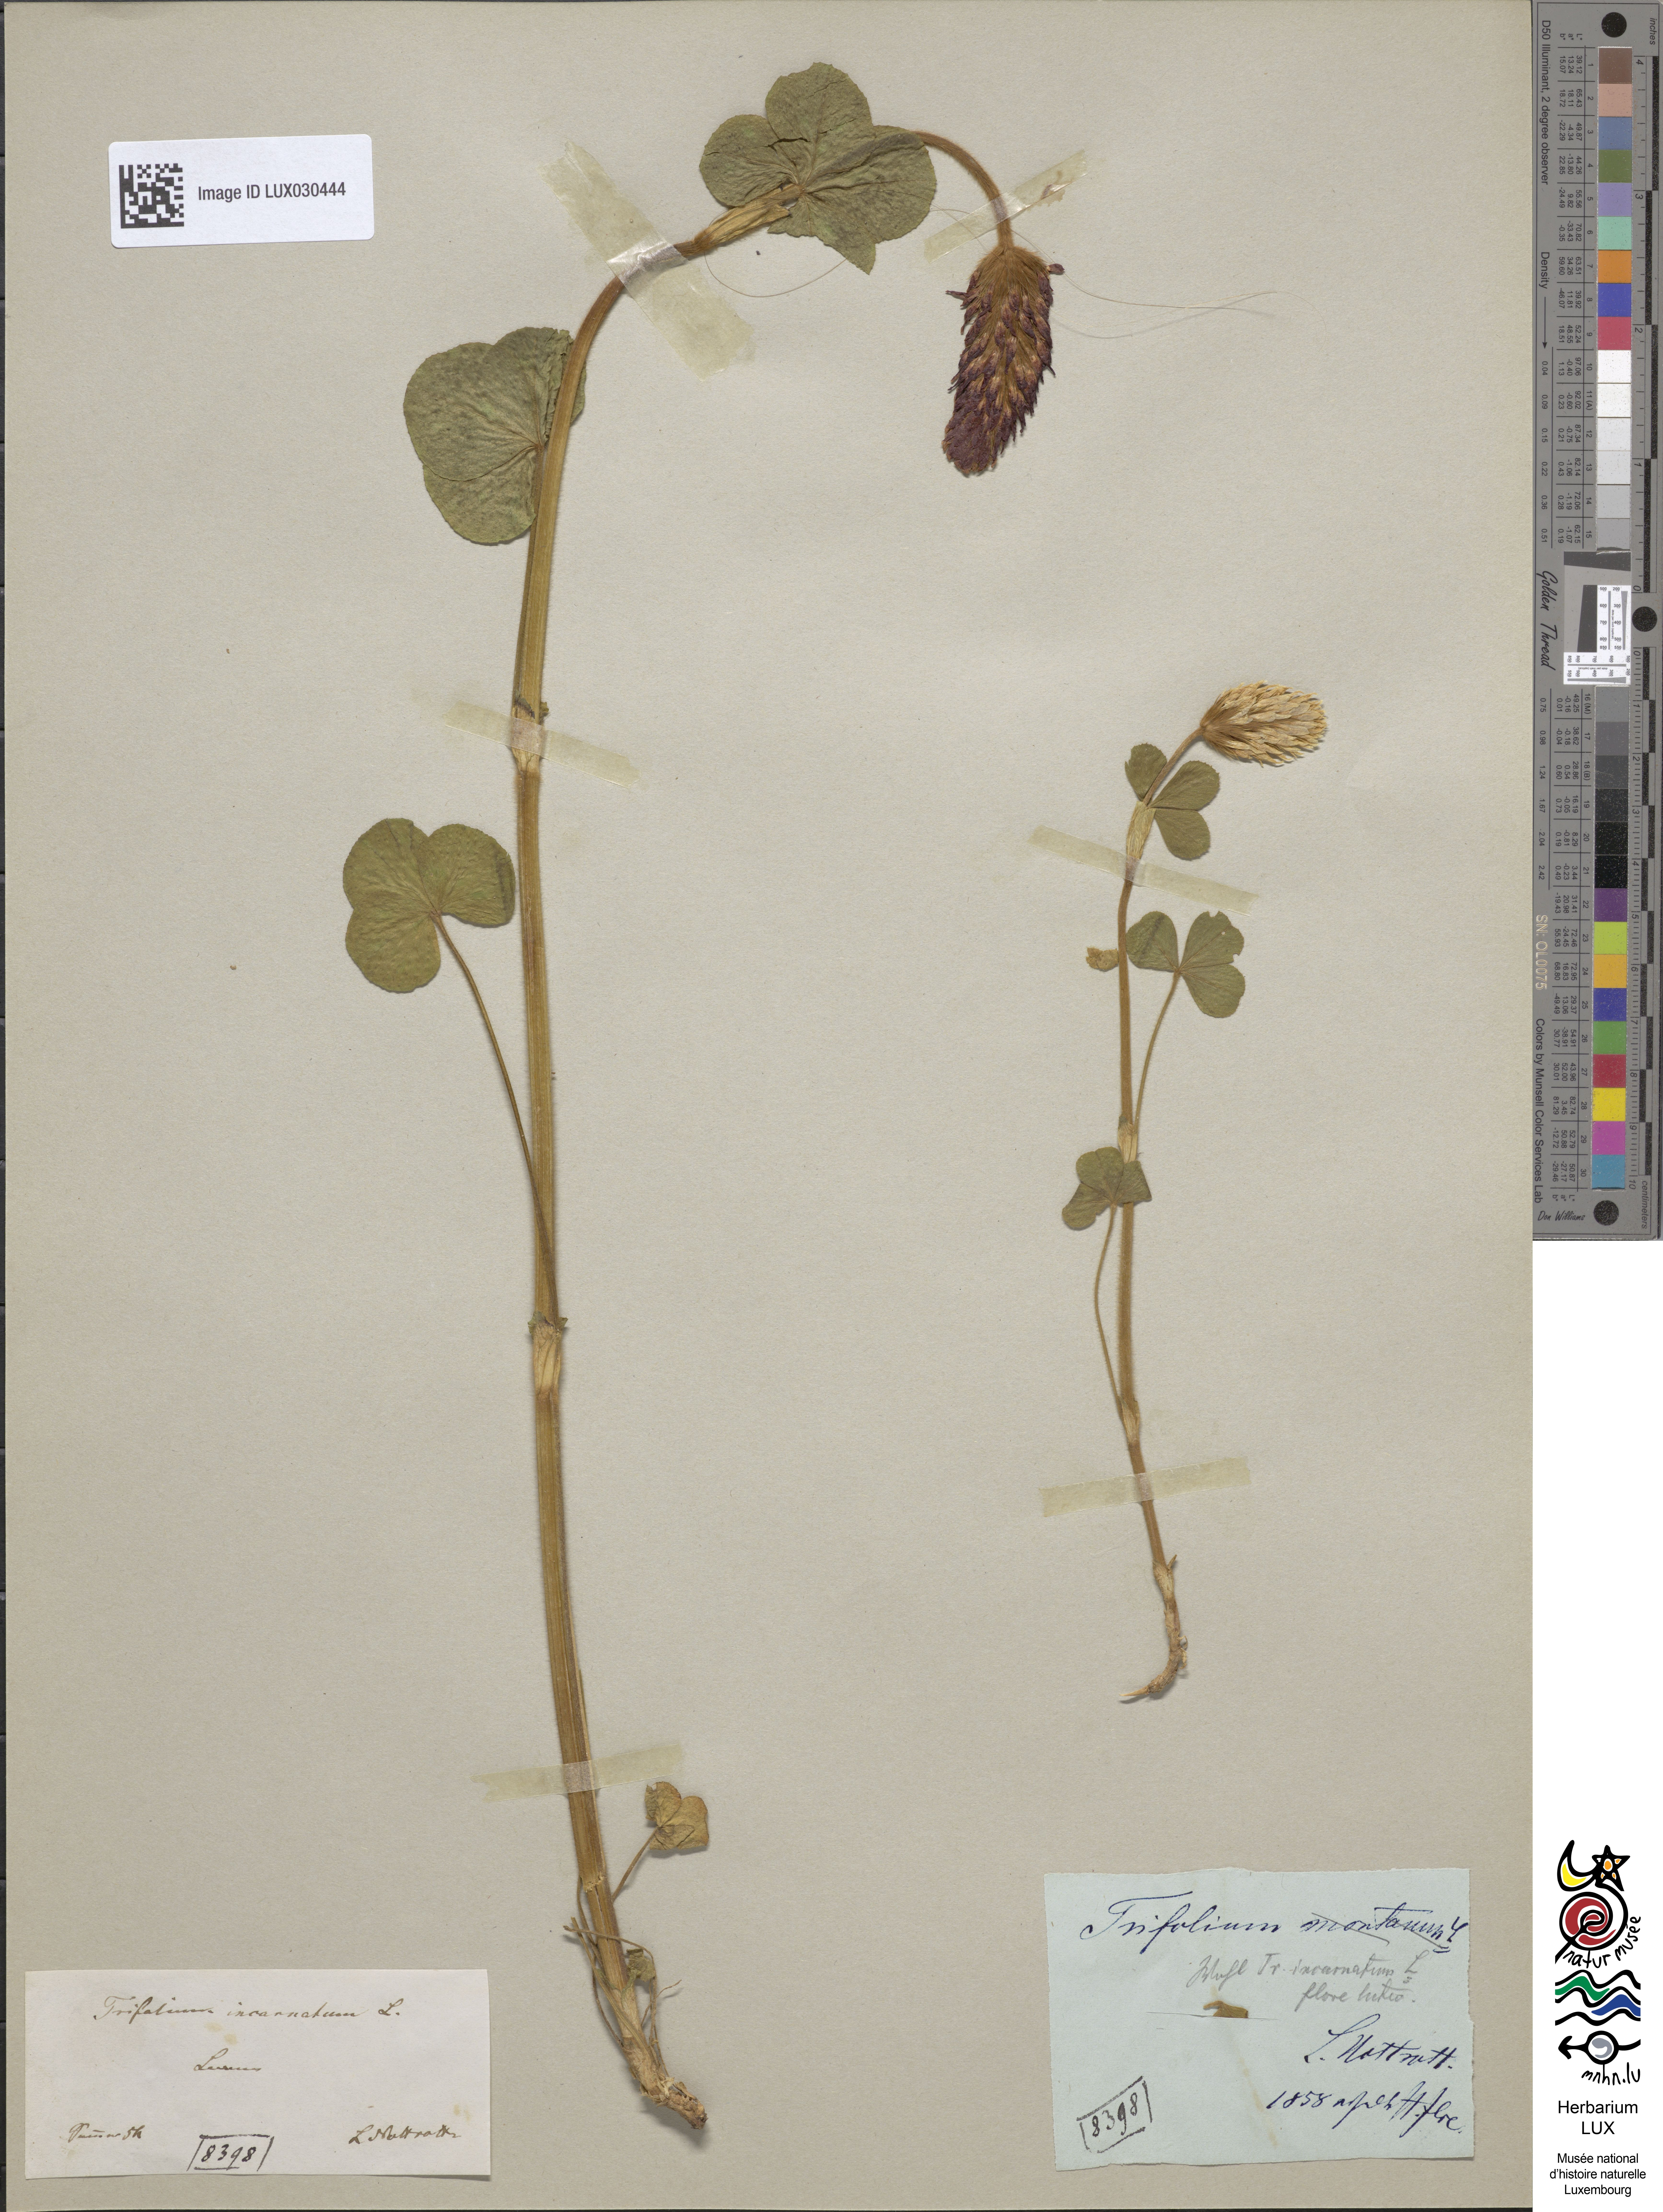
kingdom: Plantae
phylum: Tracheophyta
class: Magnoliopsida
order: Fabales
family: Fabaceae
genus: Trifolium
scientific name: Trifolium incarnatum
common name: Crimson clover
